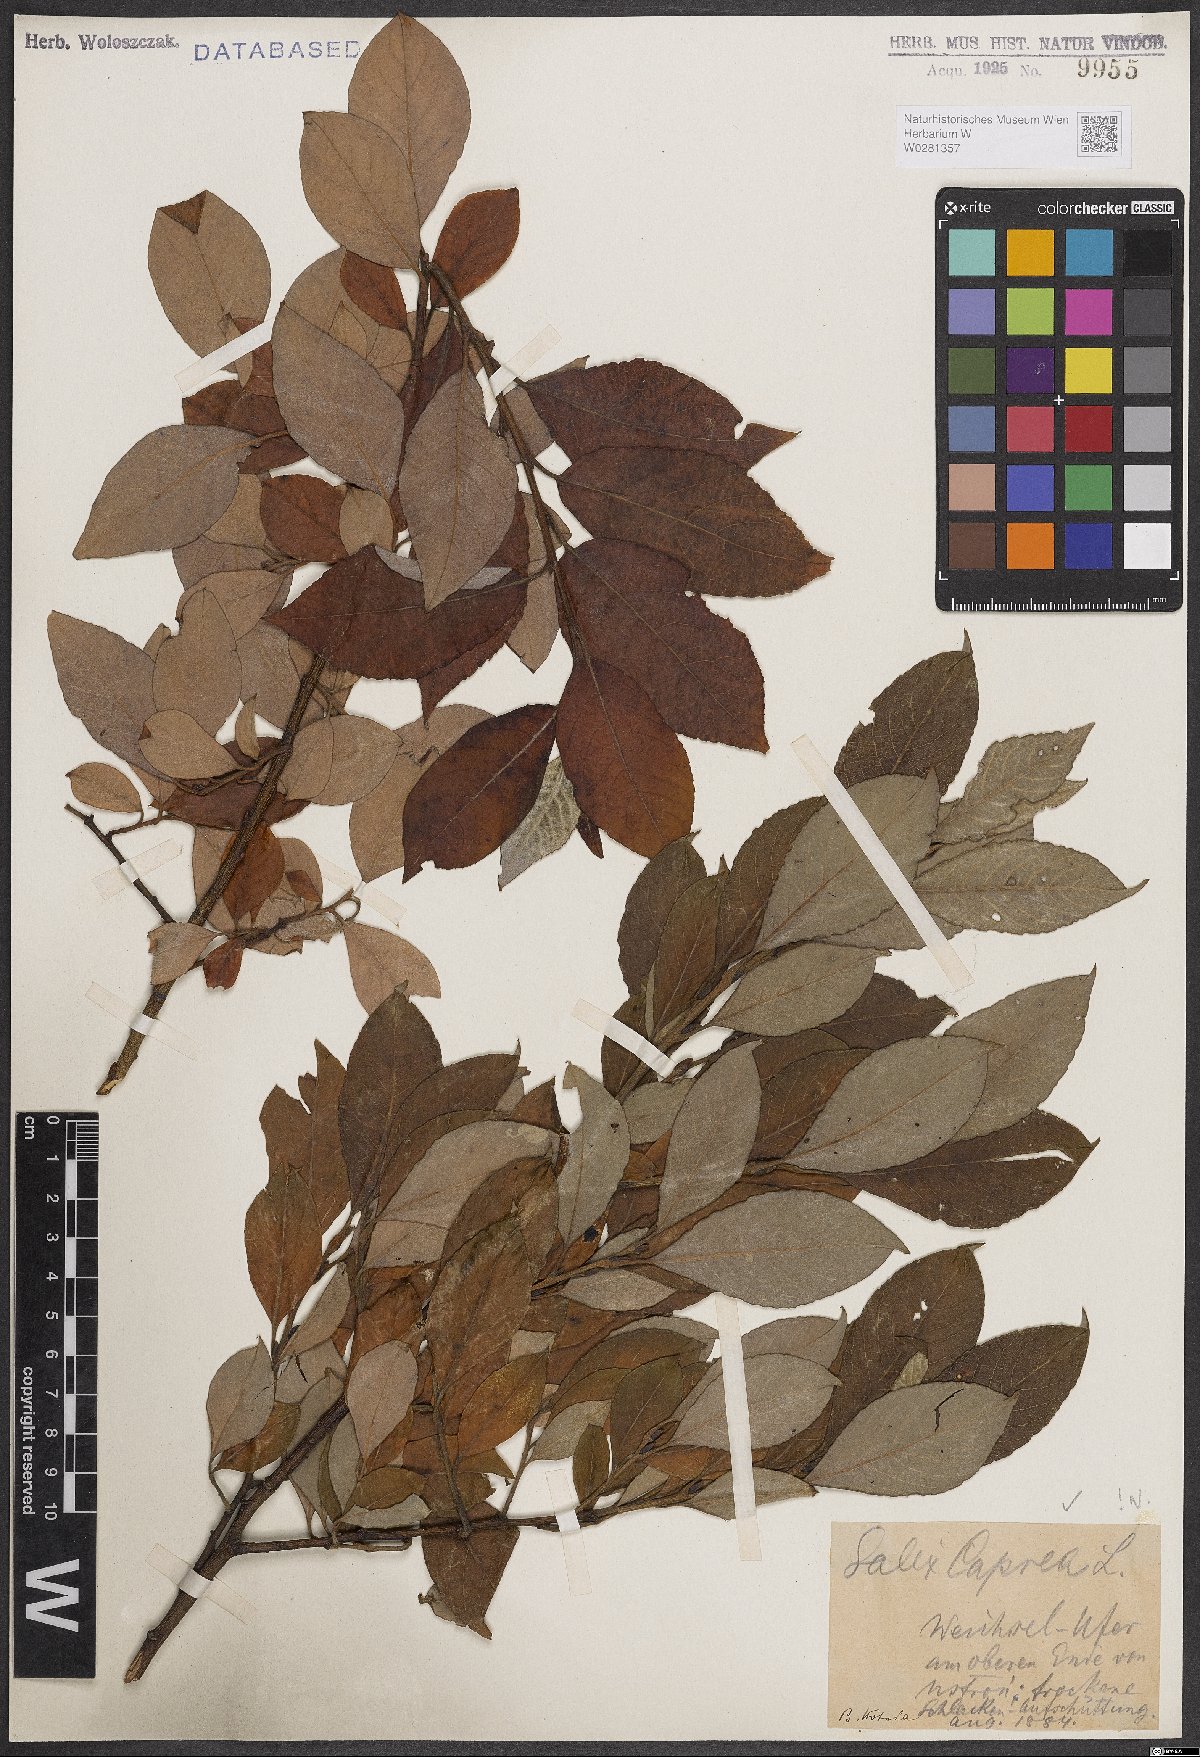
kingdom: Plantae
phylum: Tracheophyta
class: Magnoliopsida
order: Malpighiales
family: Salicaceae
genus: Salix
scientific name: Salix caprea
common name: Goat willow
